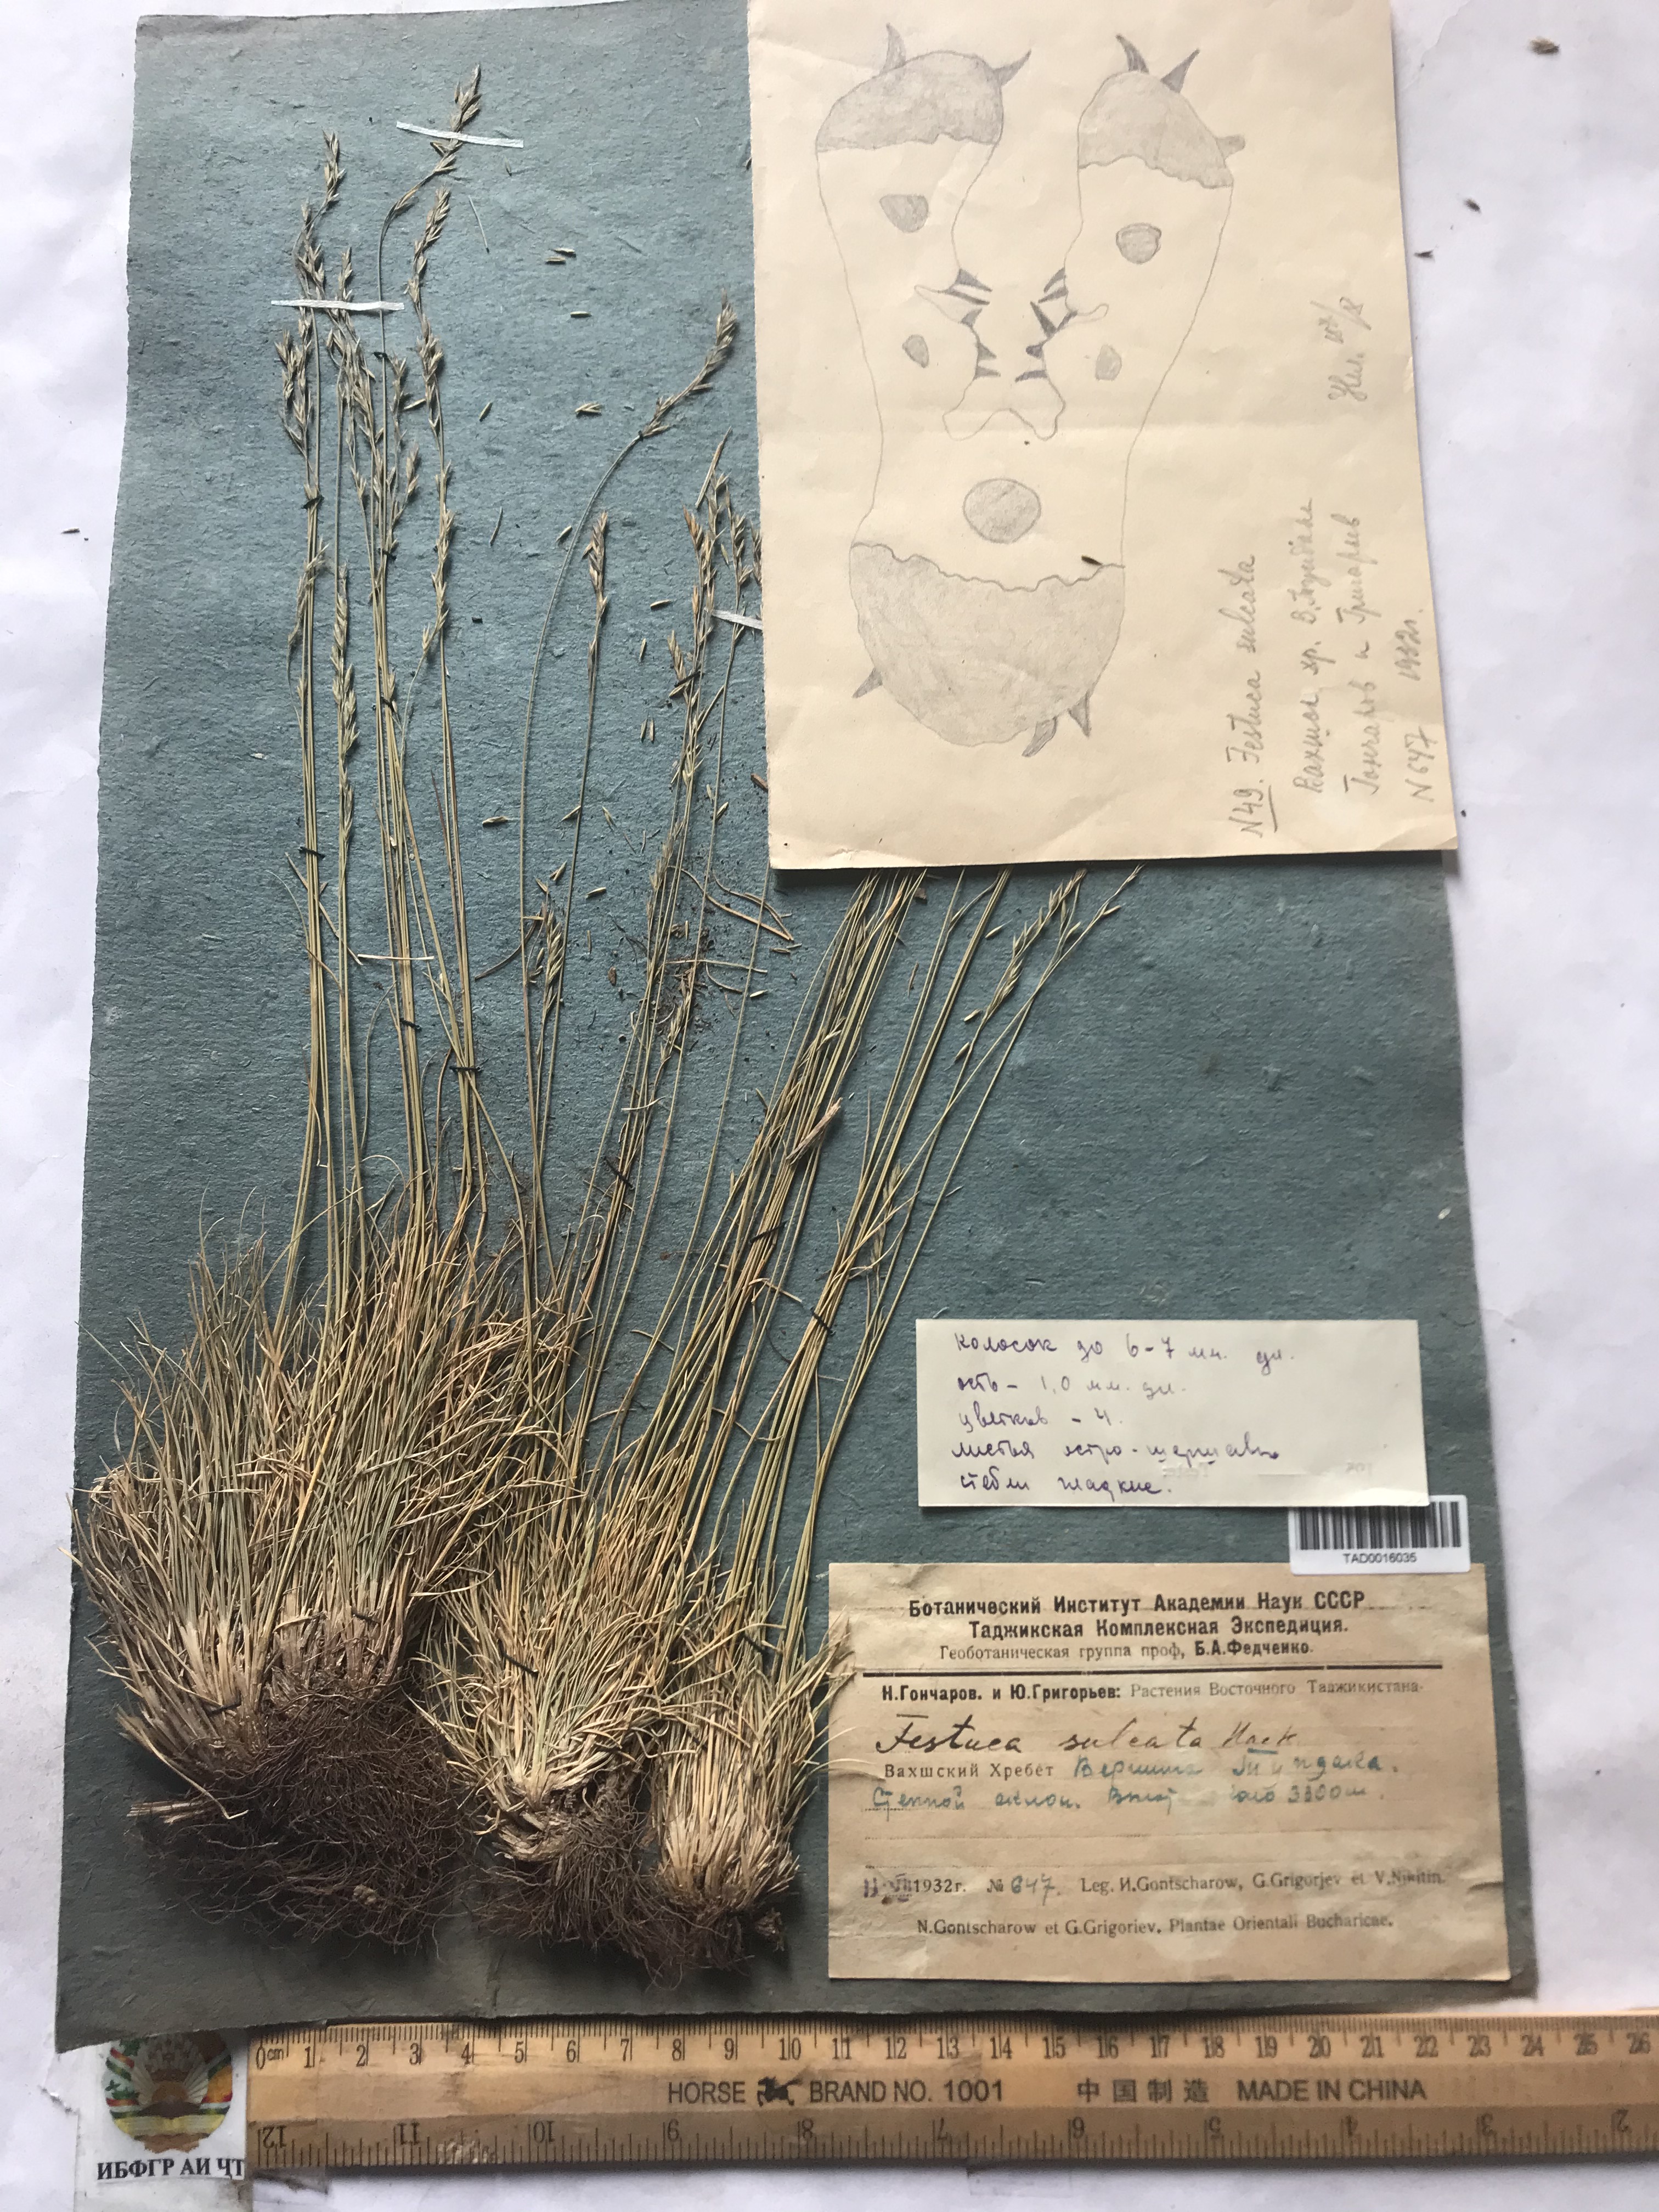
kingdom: Plantae
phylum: Tracheophyta
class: Liliopsida
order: Poales
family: Poaceae
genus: Festuca
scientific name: Festuca sulcata
